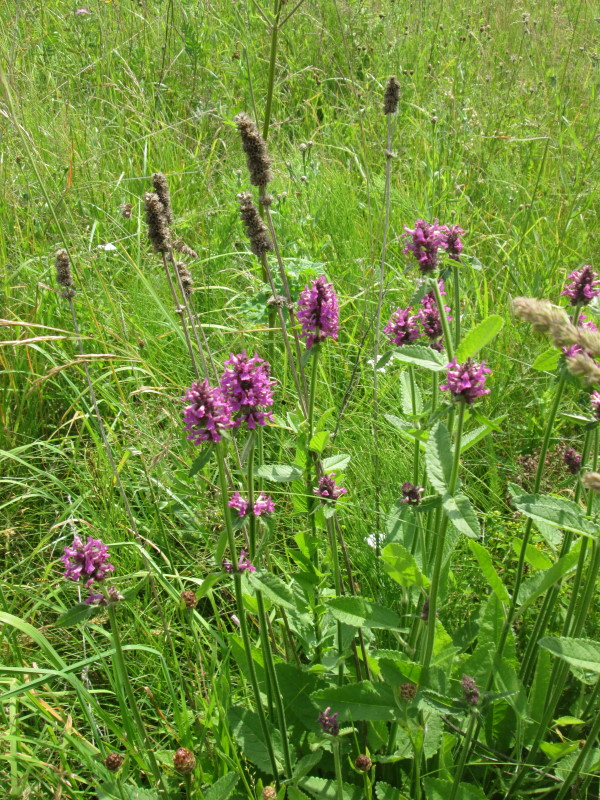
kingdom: Plantae
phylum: Tracheophyta
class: Magnoliopsida
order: Lamiales
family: Lamiaceae
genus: Betonica
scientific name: Betonica officinalis
